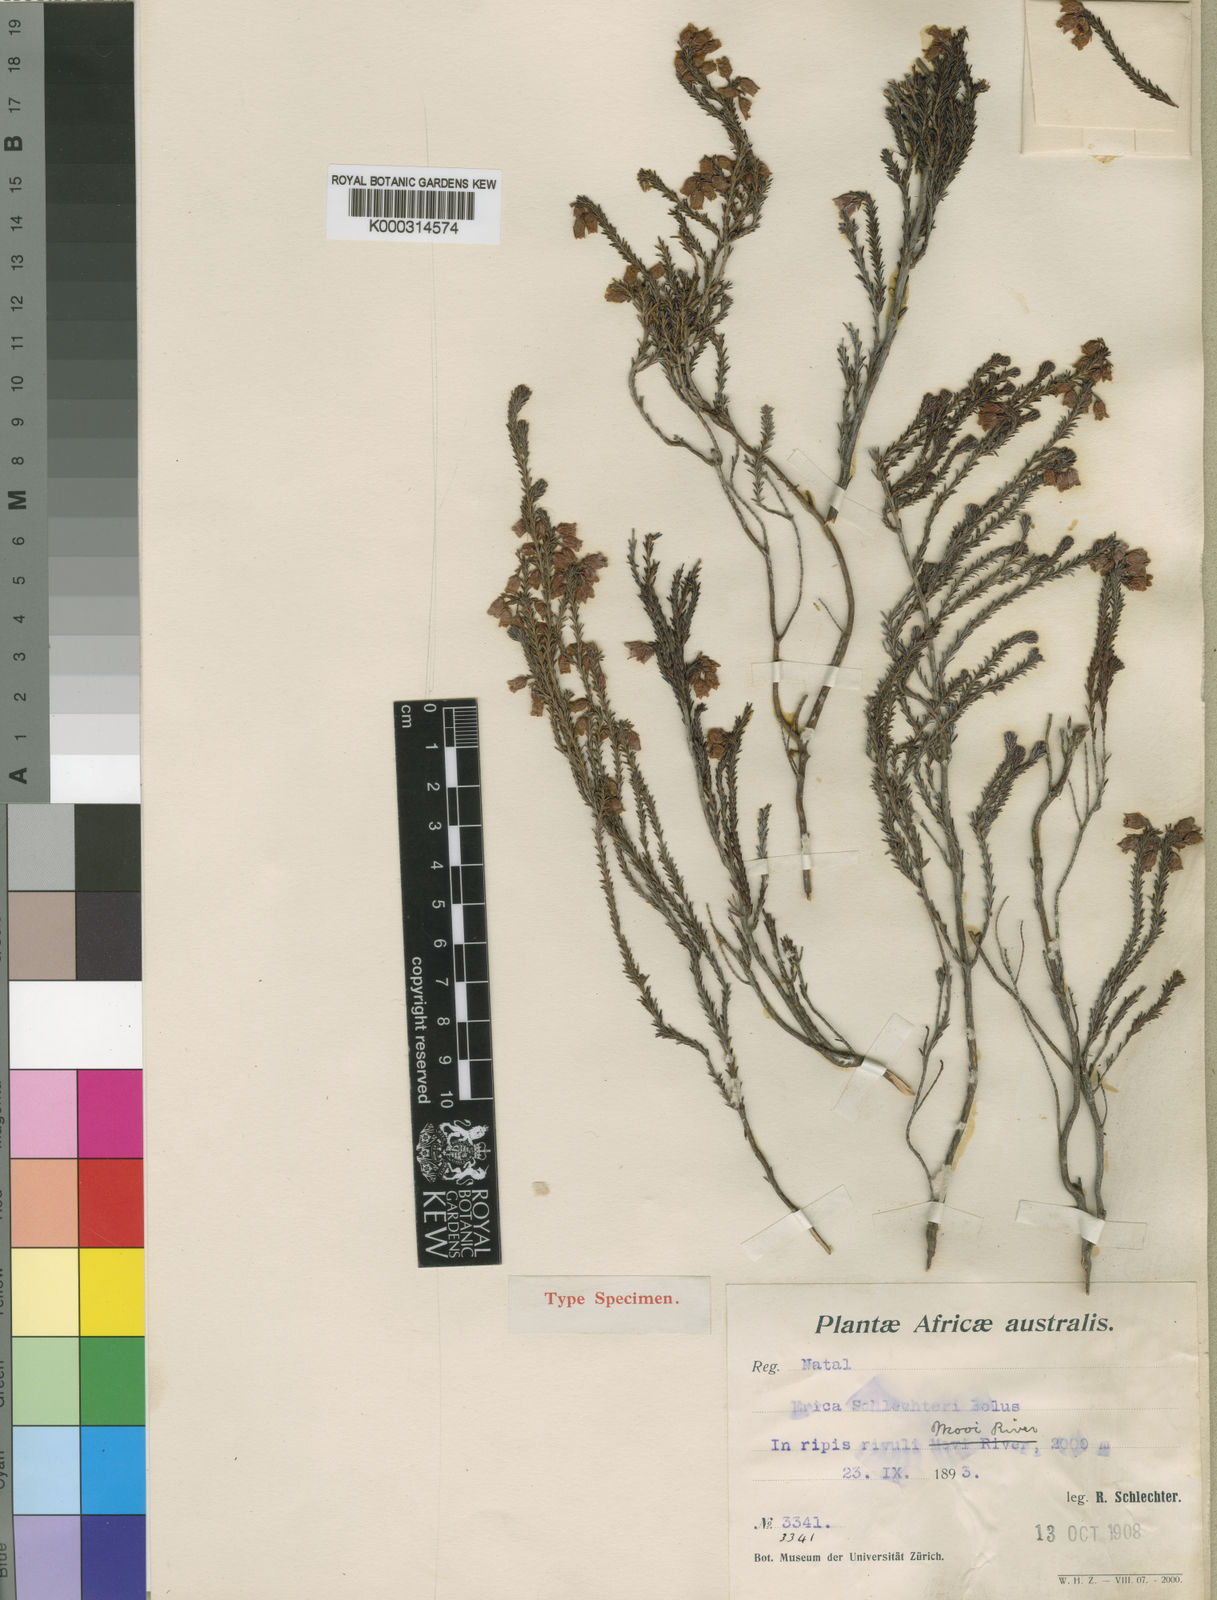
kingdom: Plantae
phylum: Tracheophyta
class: Magnoliopsida
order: Ericales
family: Ericaceae
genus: Erica
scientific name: Erica schlechteri
